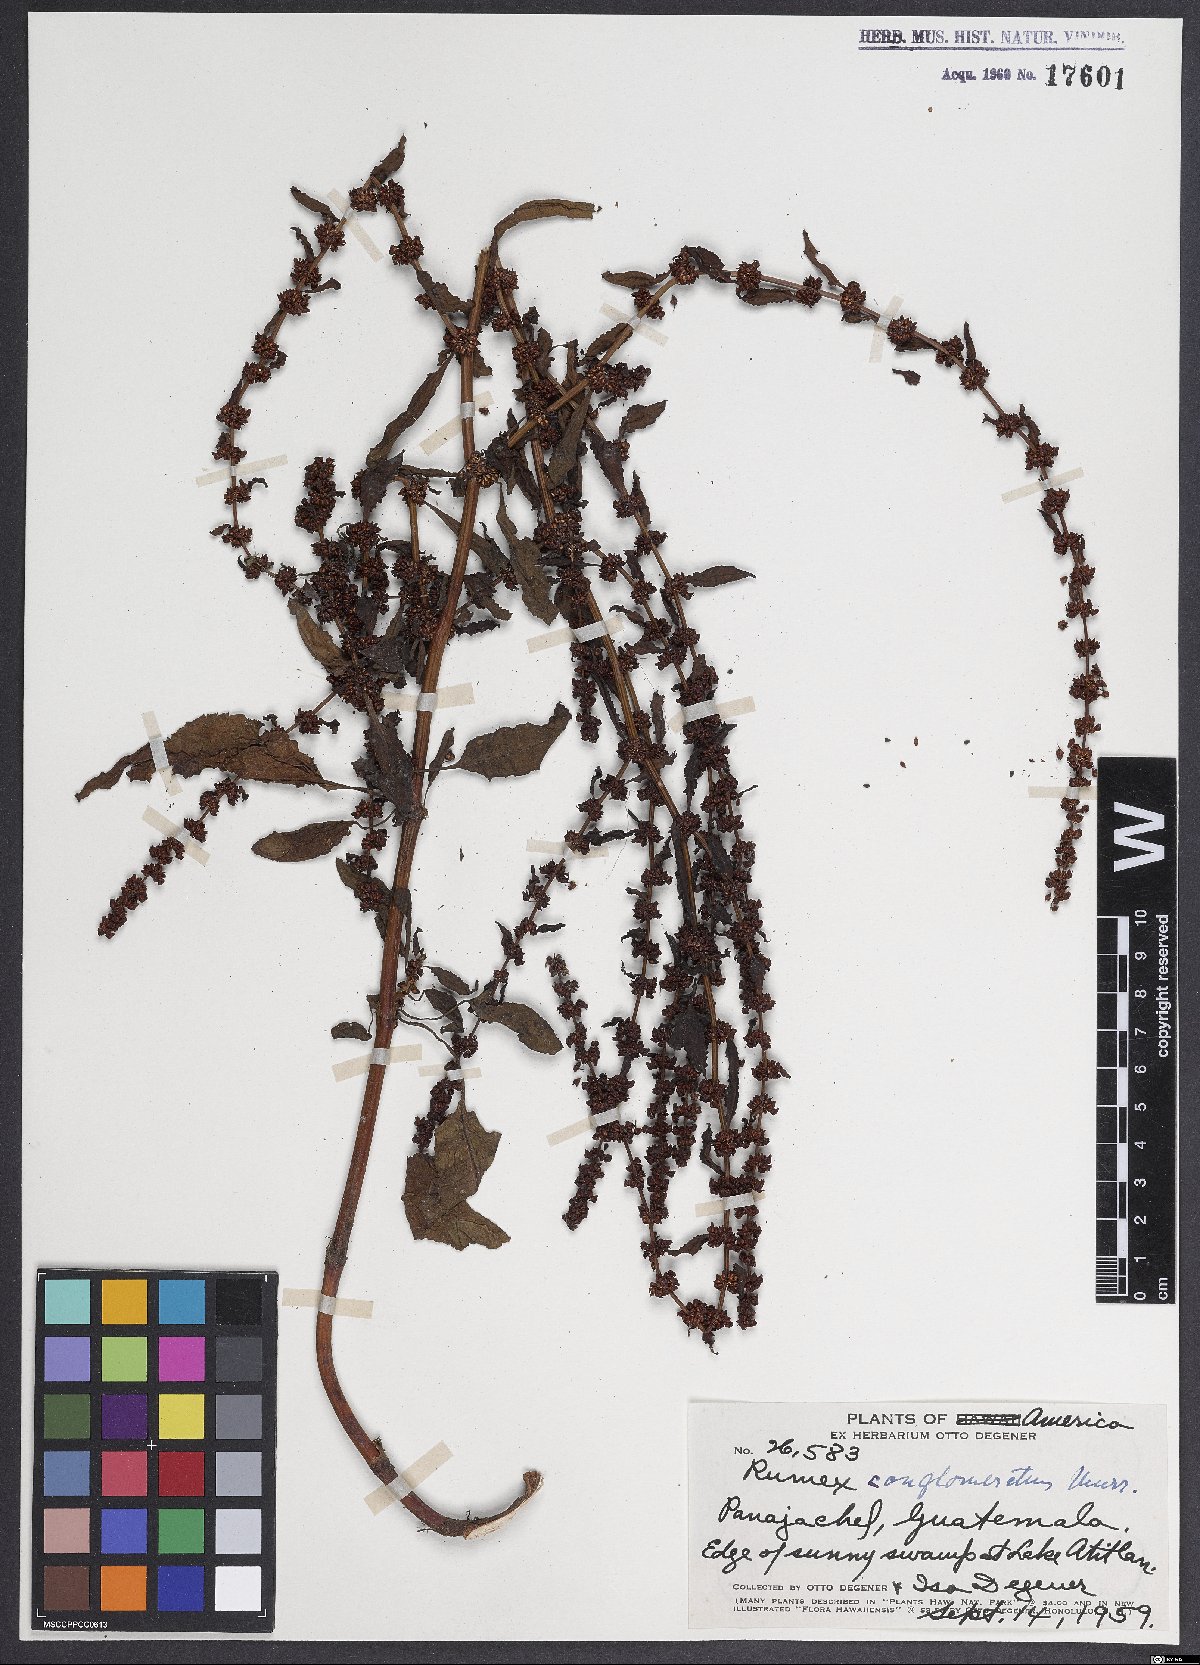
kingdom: Plantae
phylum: Tracheophyta
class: Magnoliopsida
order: Caryophyllales
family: Polygonaceae
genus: Rumex
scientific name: Rumex conglomeratus
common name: Clustered dock
